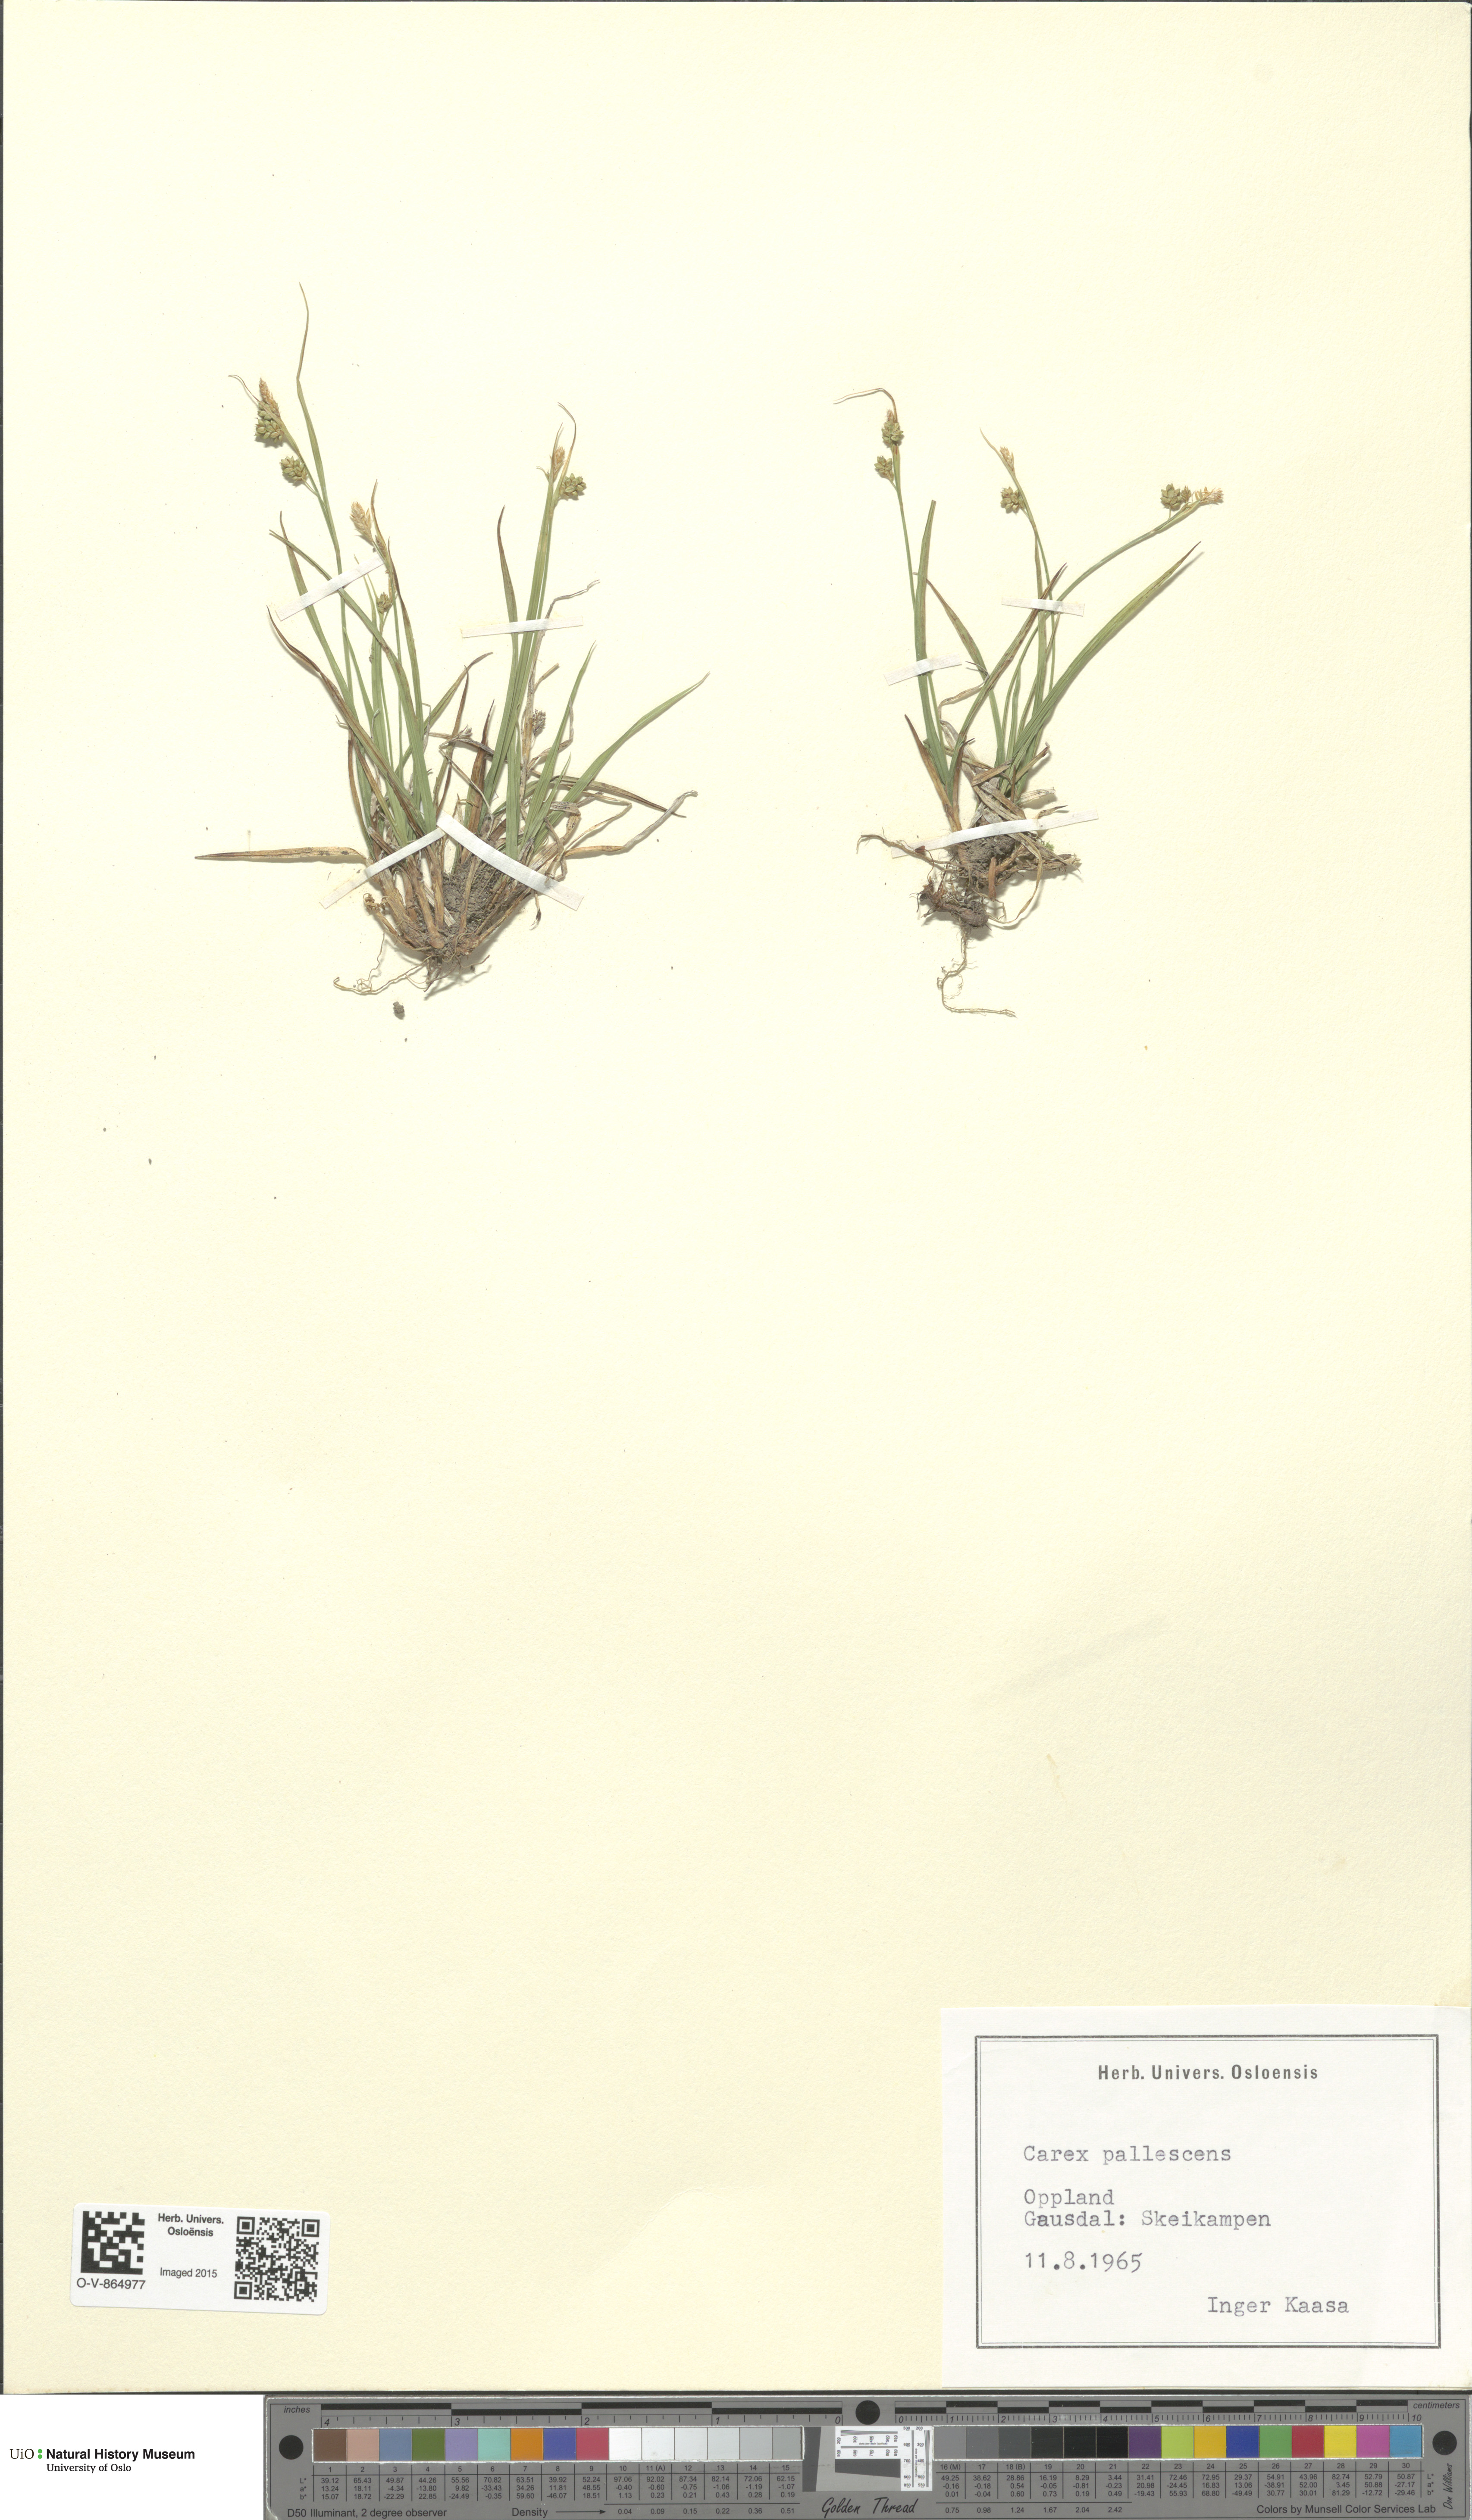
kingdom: Plantae
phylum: Tracheophyta
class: Liliopsida
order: Poales
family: Cyperaceae
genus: Carex
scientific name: Carex pallescens
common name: Pale sedge
